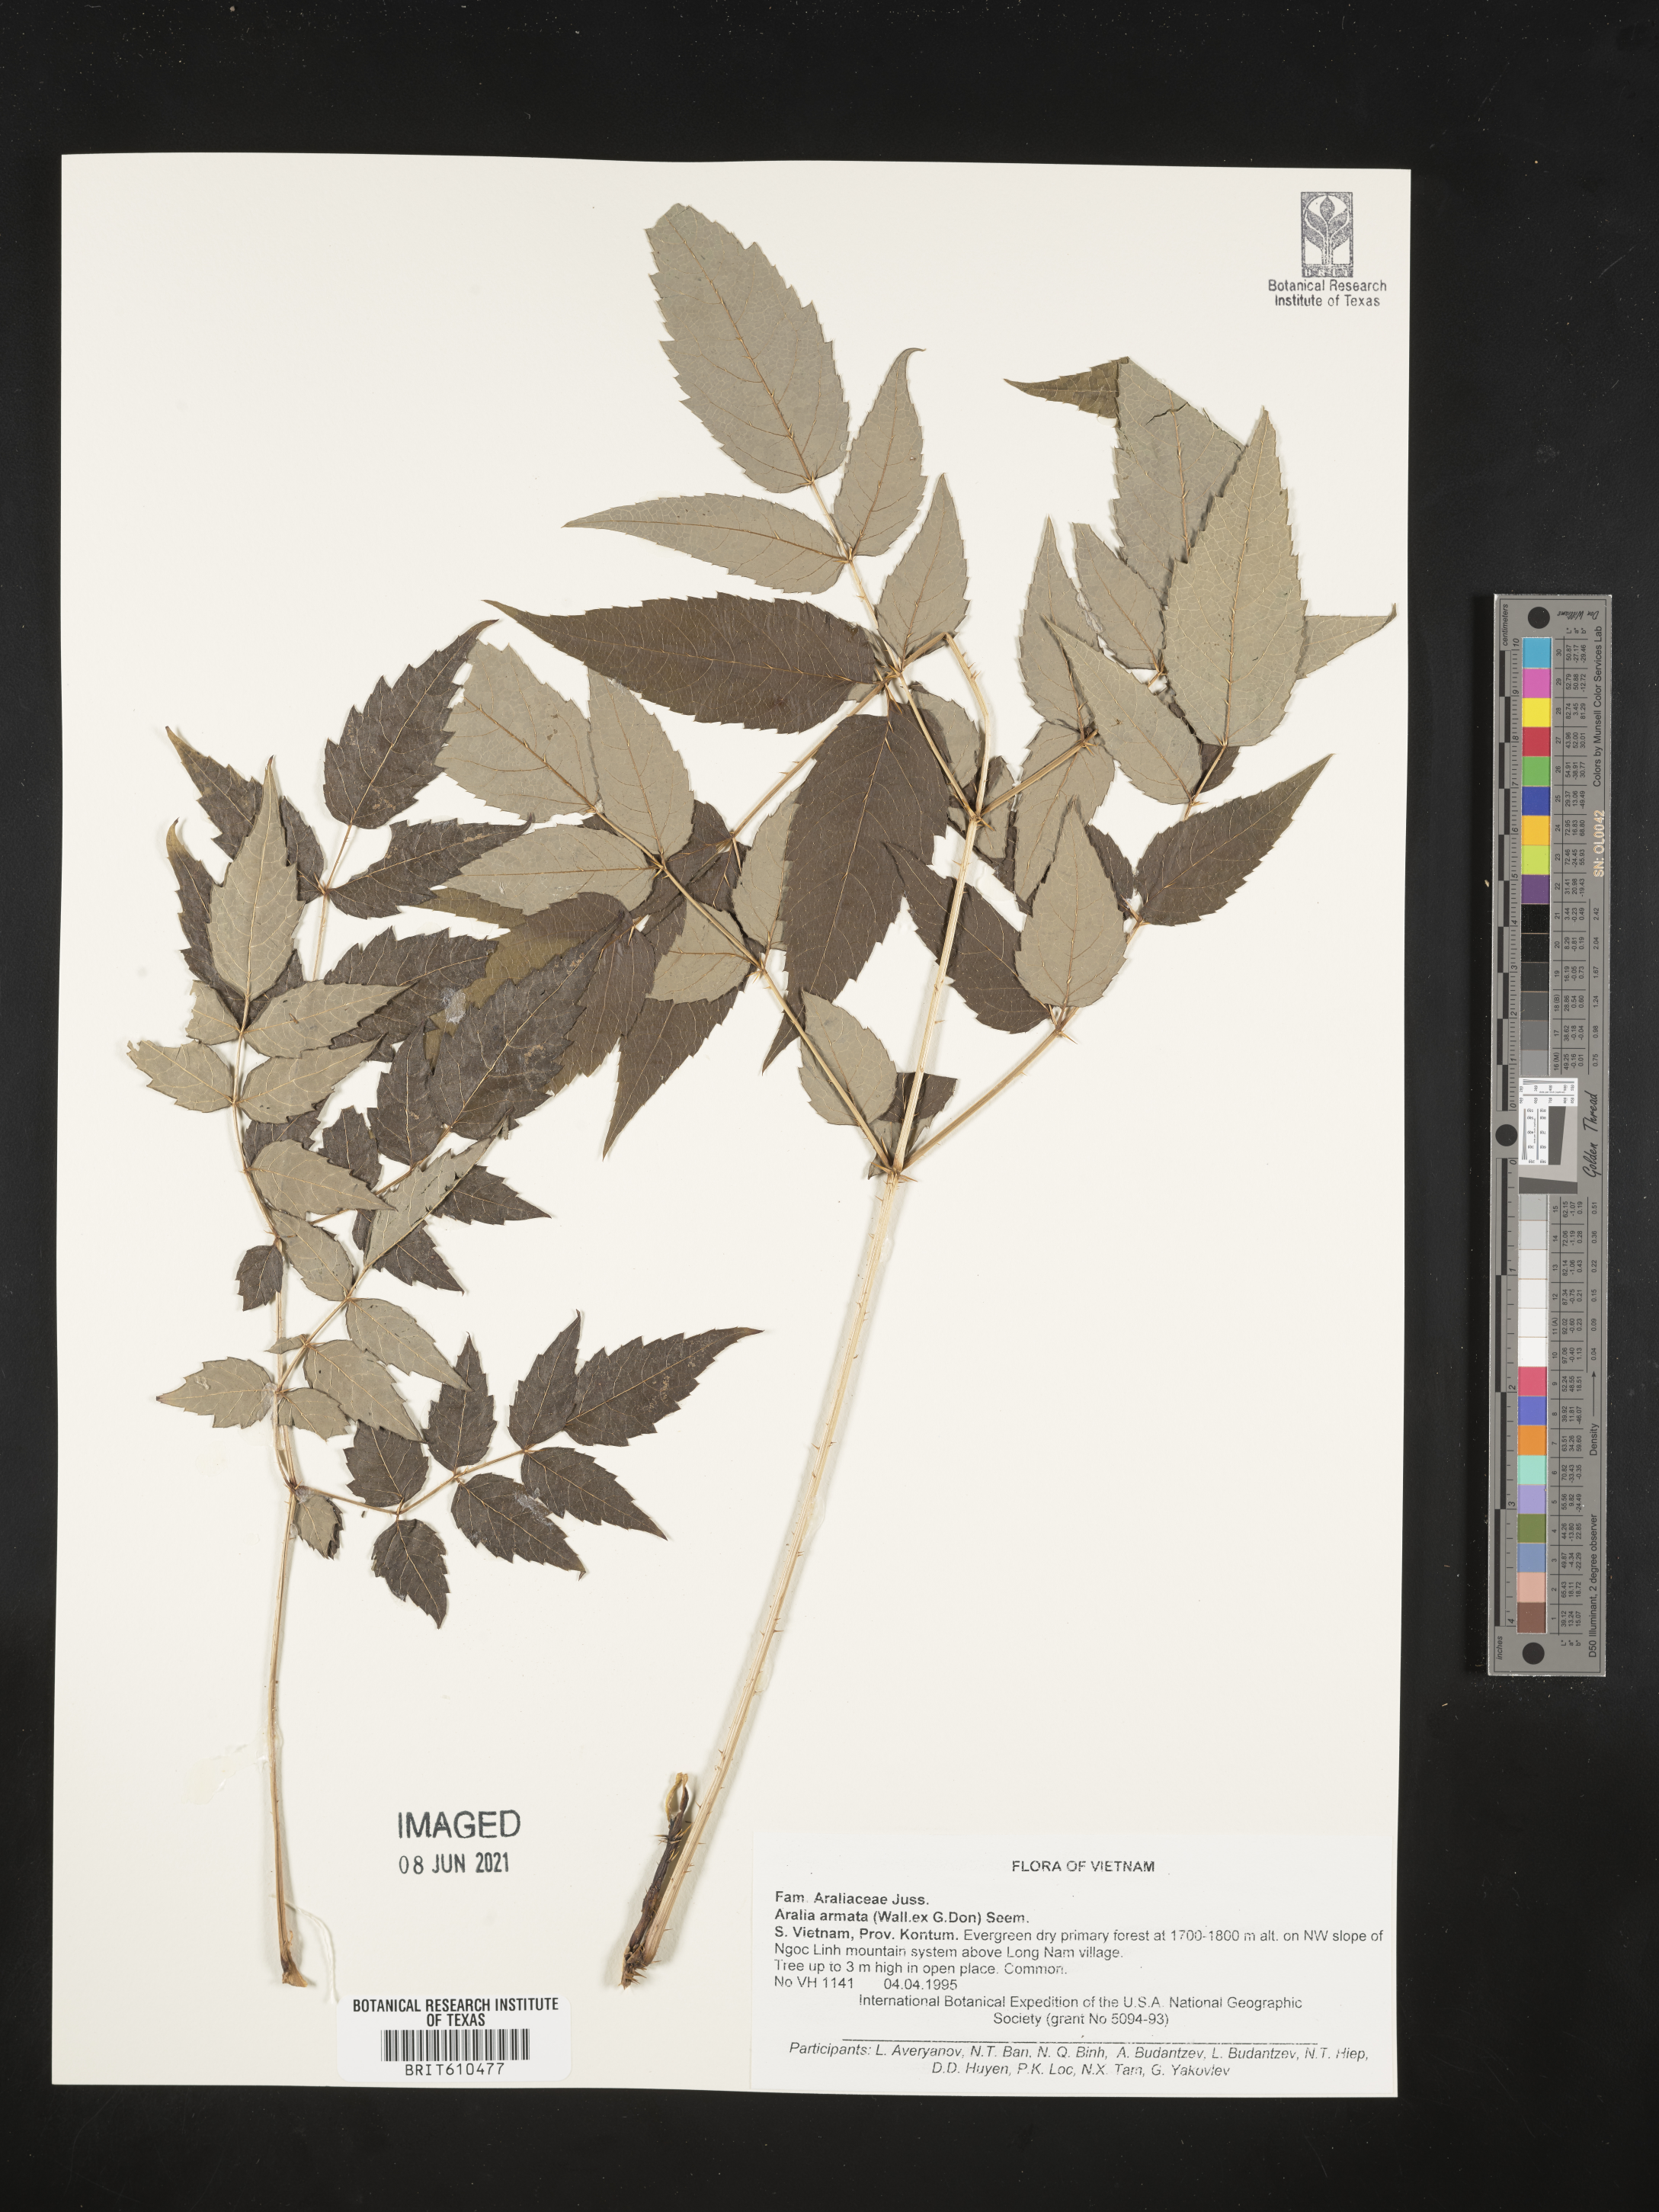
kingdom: Plantae
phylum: Tracheophyta
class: Magnoliopsida
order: Apiales
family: Araliaceae
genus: Aralia
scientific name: Aralia armata
